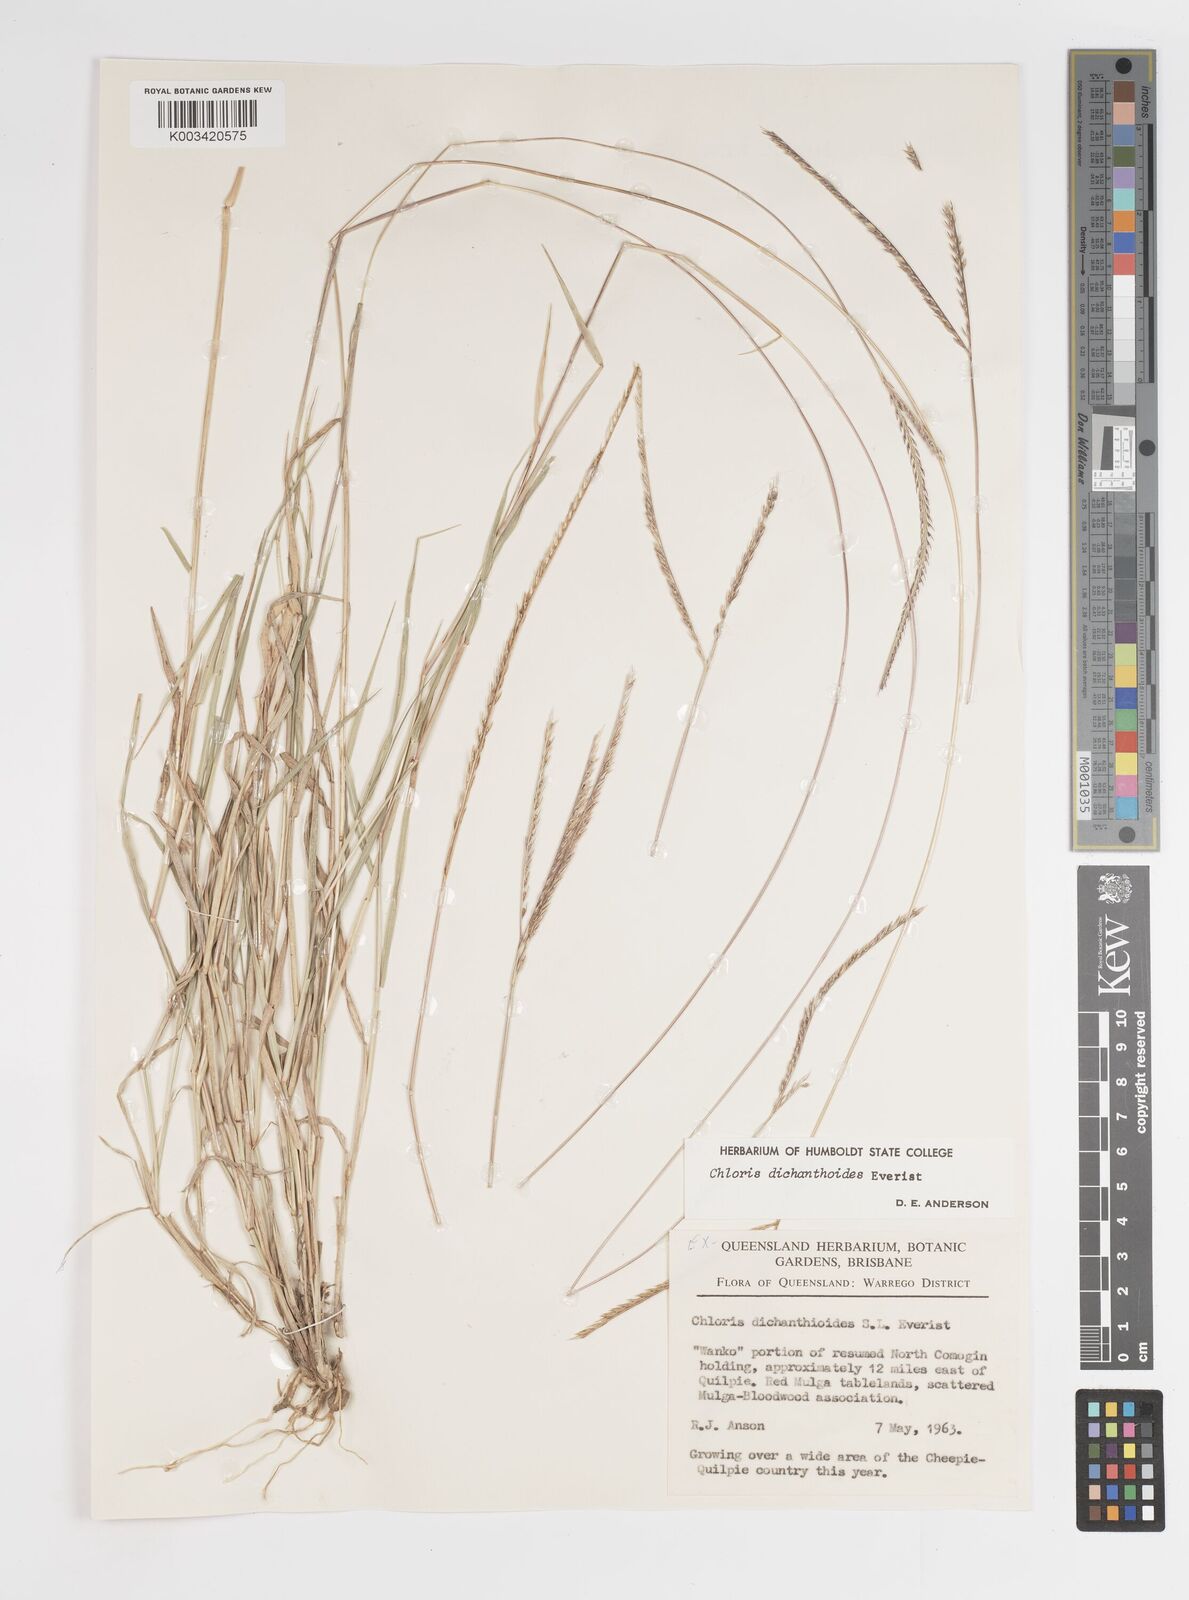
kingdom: Plantae
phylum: Tracheophyta
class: Liliopsida
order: Poales
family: Poaceae
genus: Austrochloris
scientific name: Austrochloris dichanthioides
